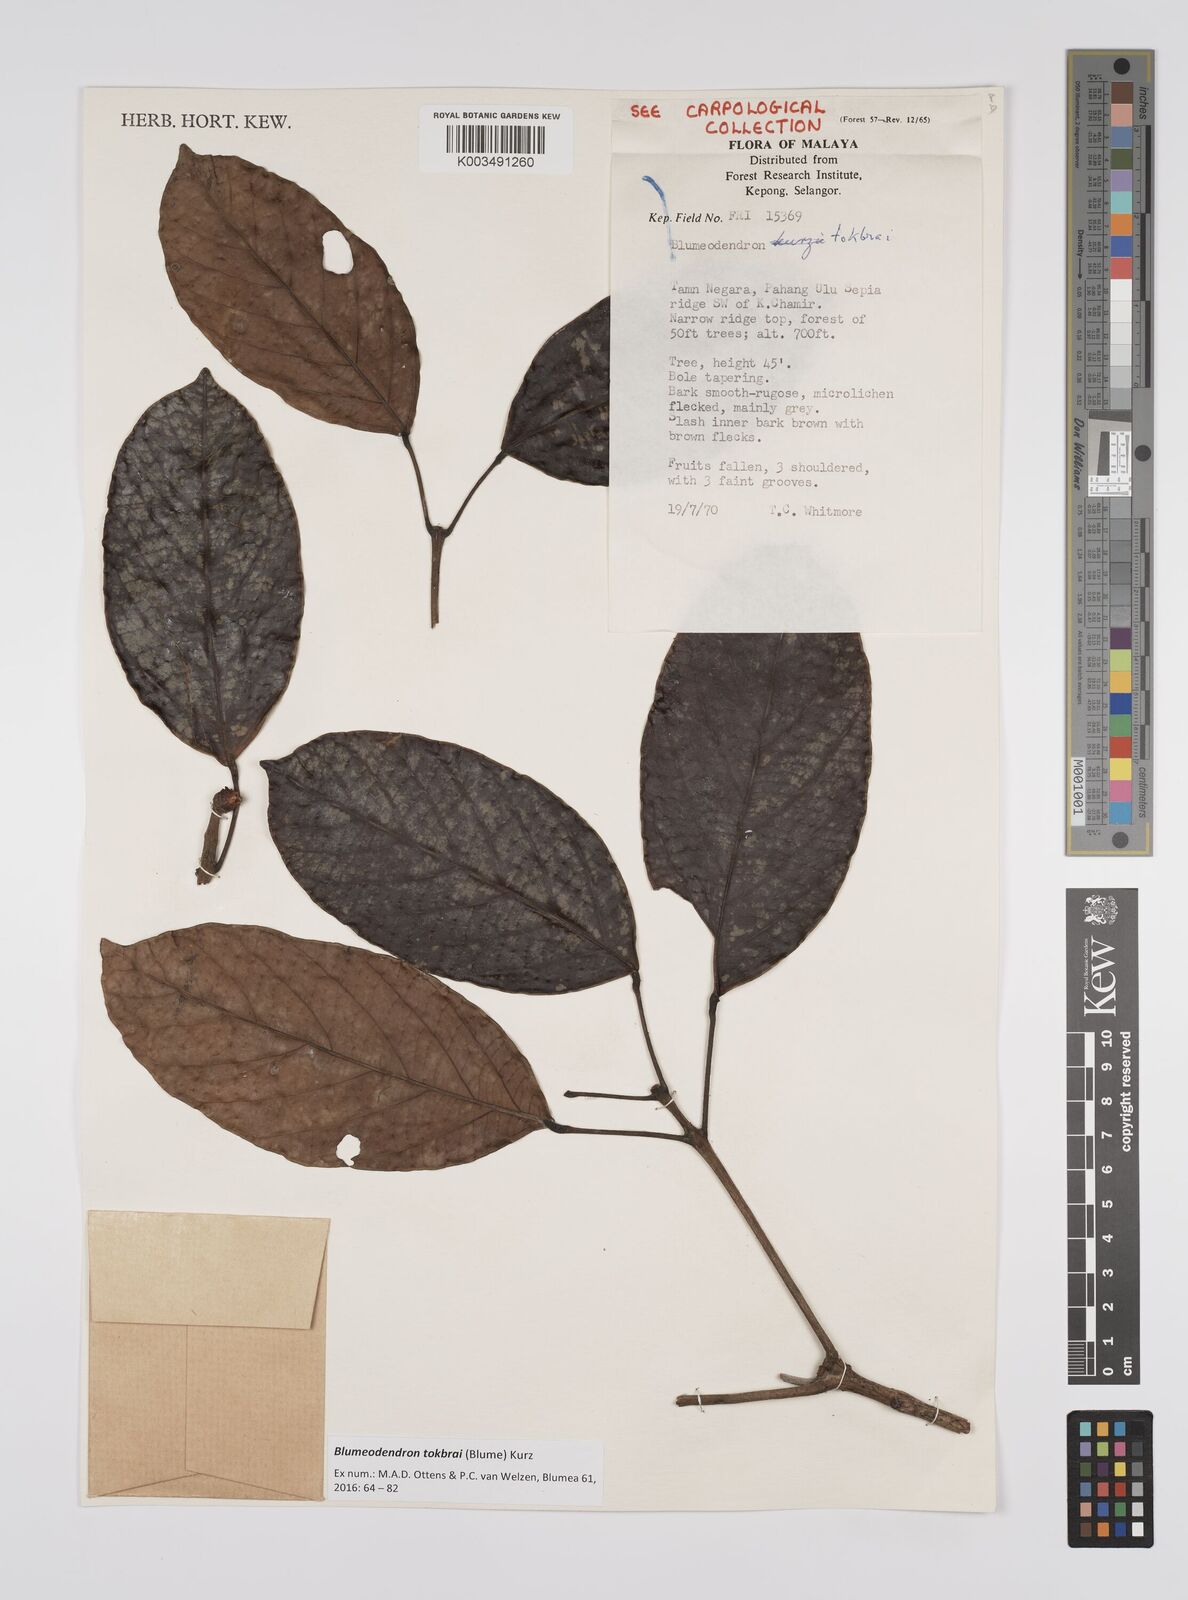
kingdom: Plantae
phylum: Tracheophyta
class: Magnoliopsida
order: Malpighiales
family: Euphorbiaceae
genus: Blumeodendron
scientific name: Blumeodendron tokbrai
